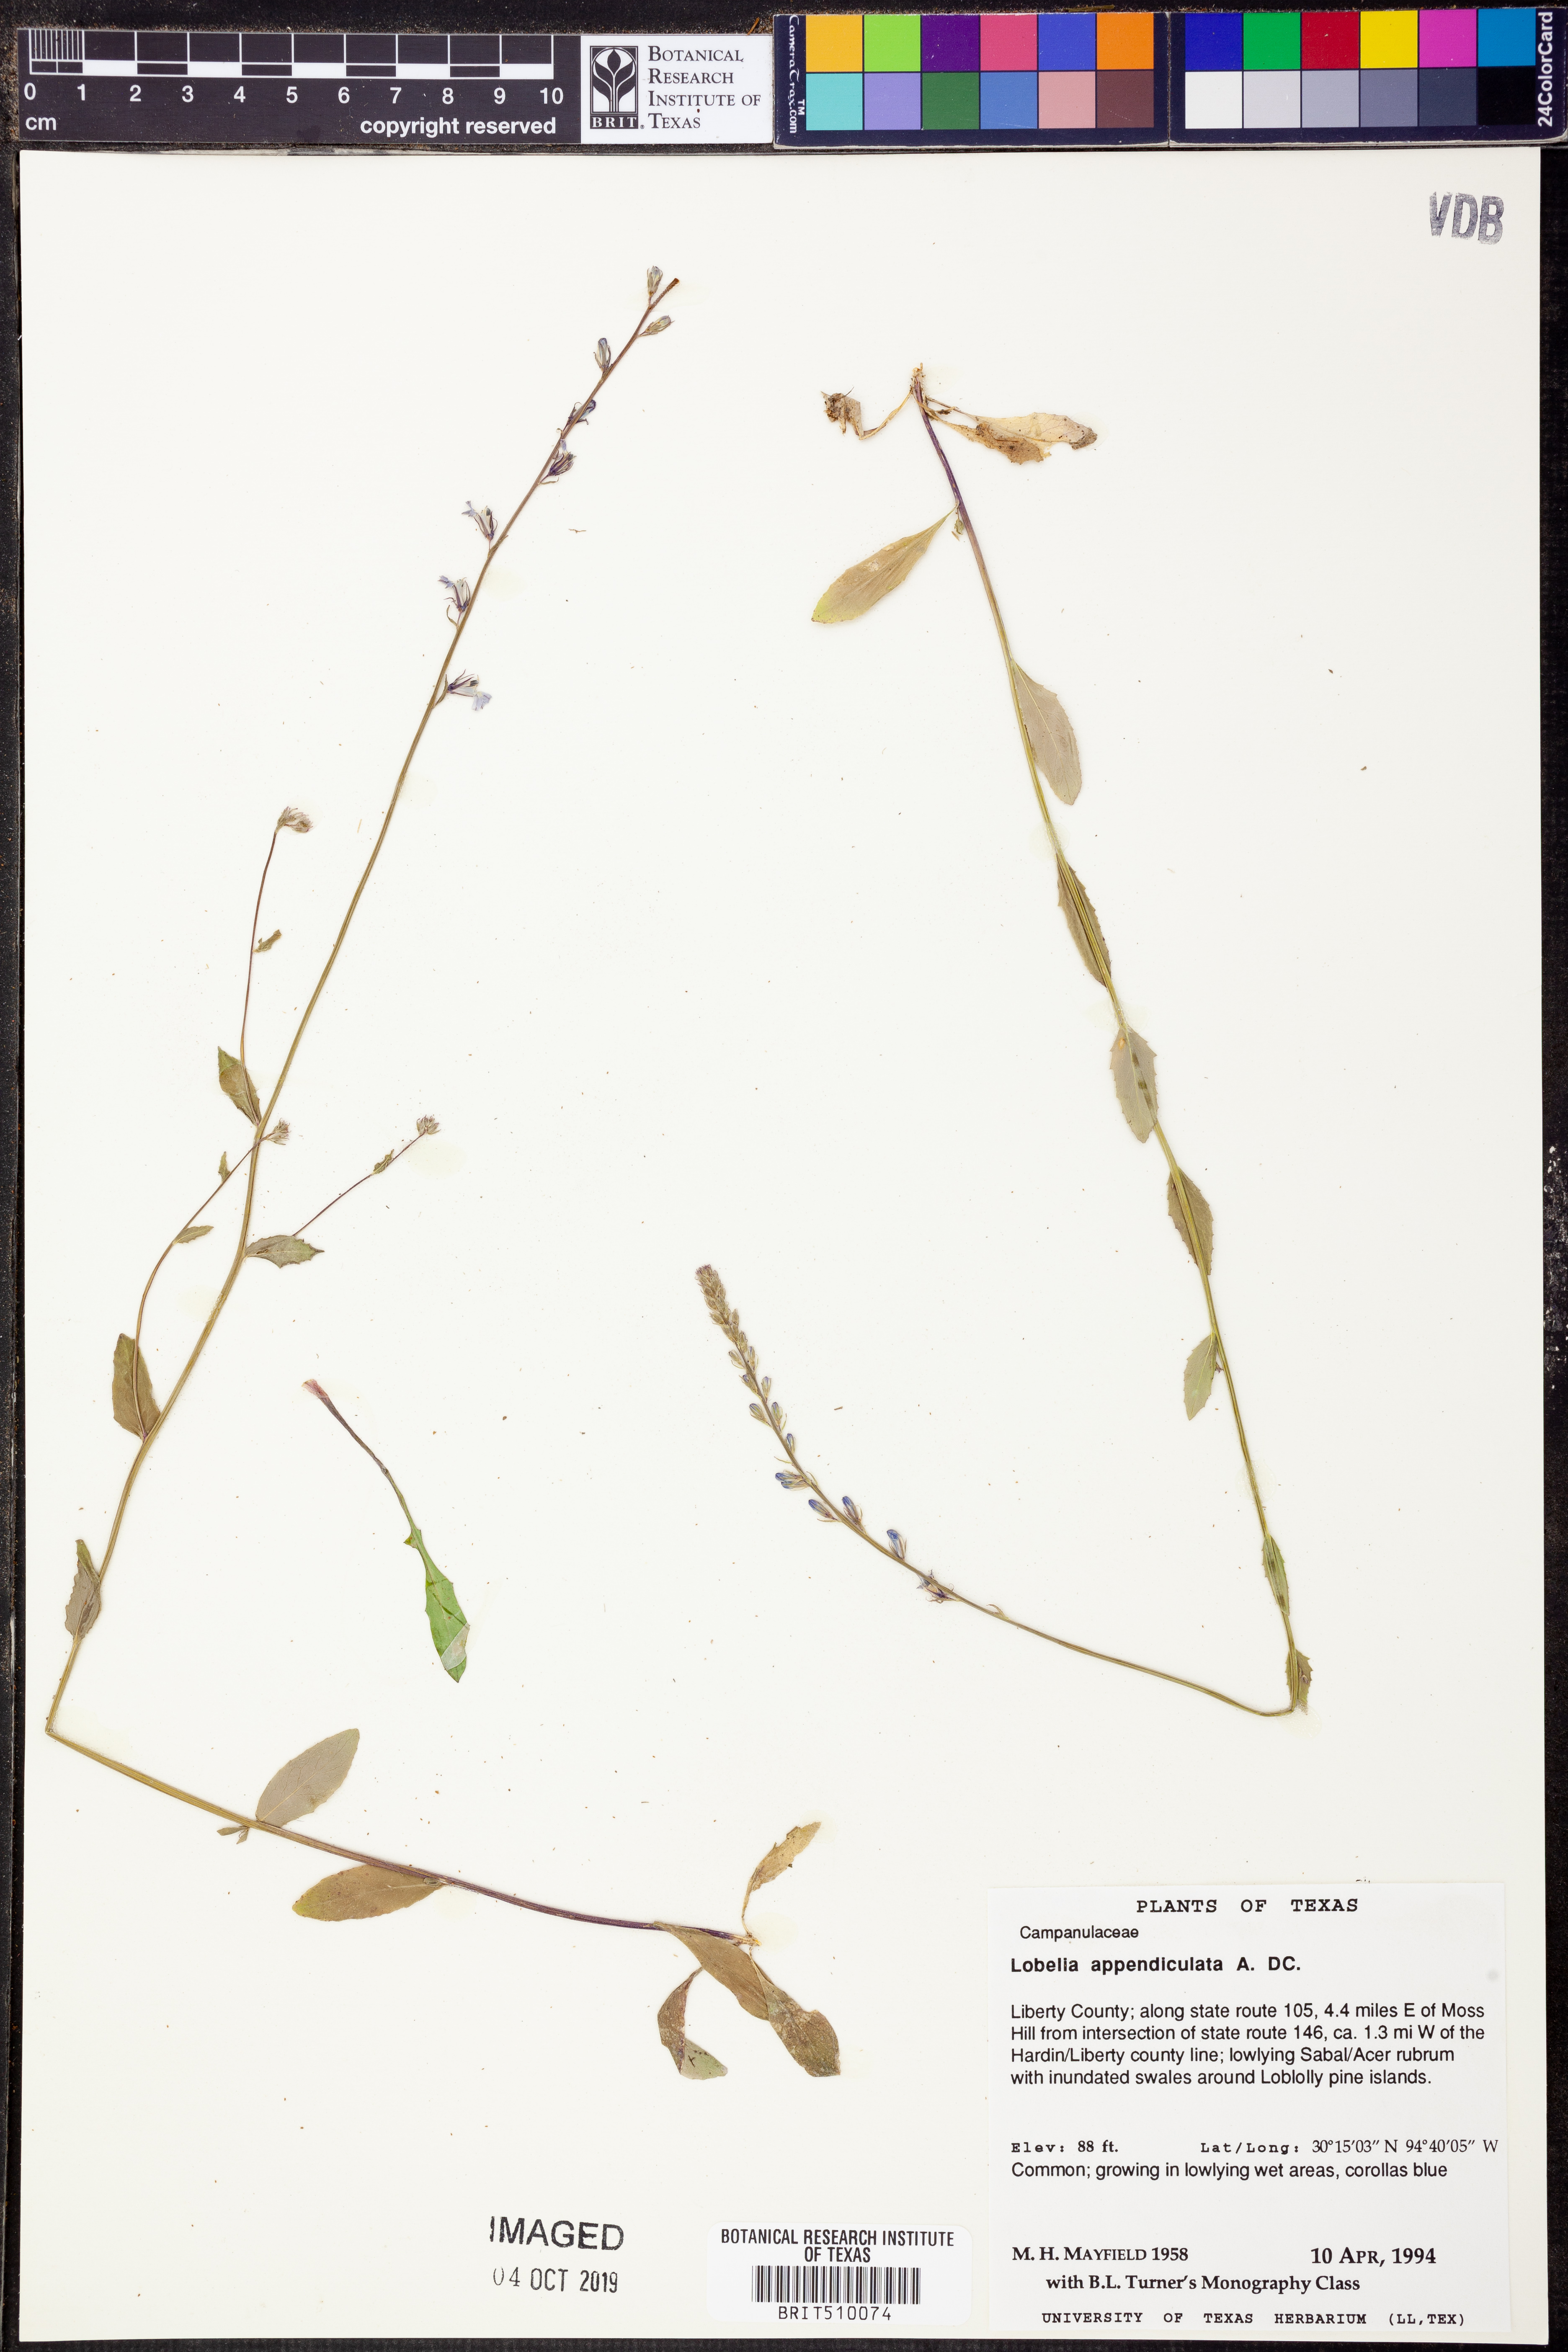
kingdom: Plantae
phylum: Tracheophyta
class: Magnoliopsida
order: Asterales
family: Campanulaceae
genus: Lobelia
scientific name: Lobelia appendiculata
